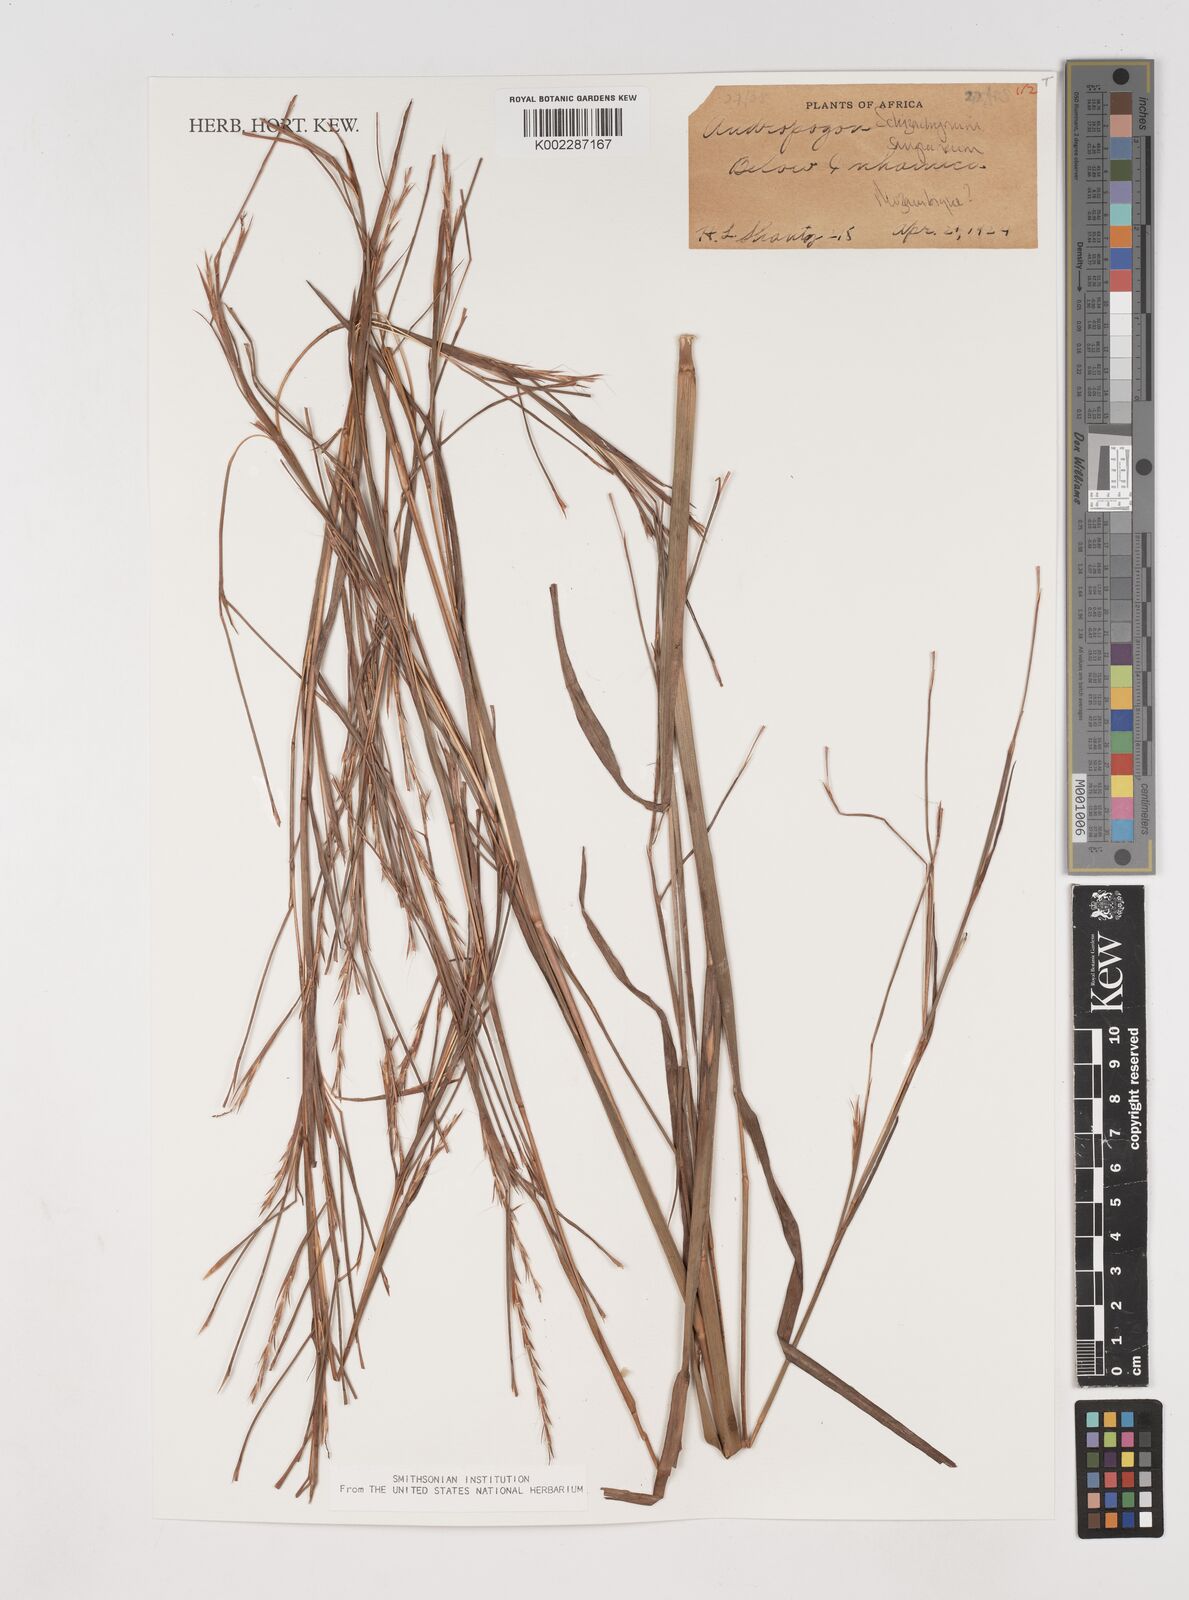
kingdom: Plantae
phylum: Tracheophyta
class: Liliopsida
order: Poales
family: Poaceae
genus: Schizachyrium
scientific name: Schizachyrium sanguineum
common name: Crimson bluestem
